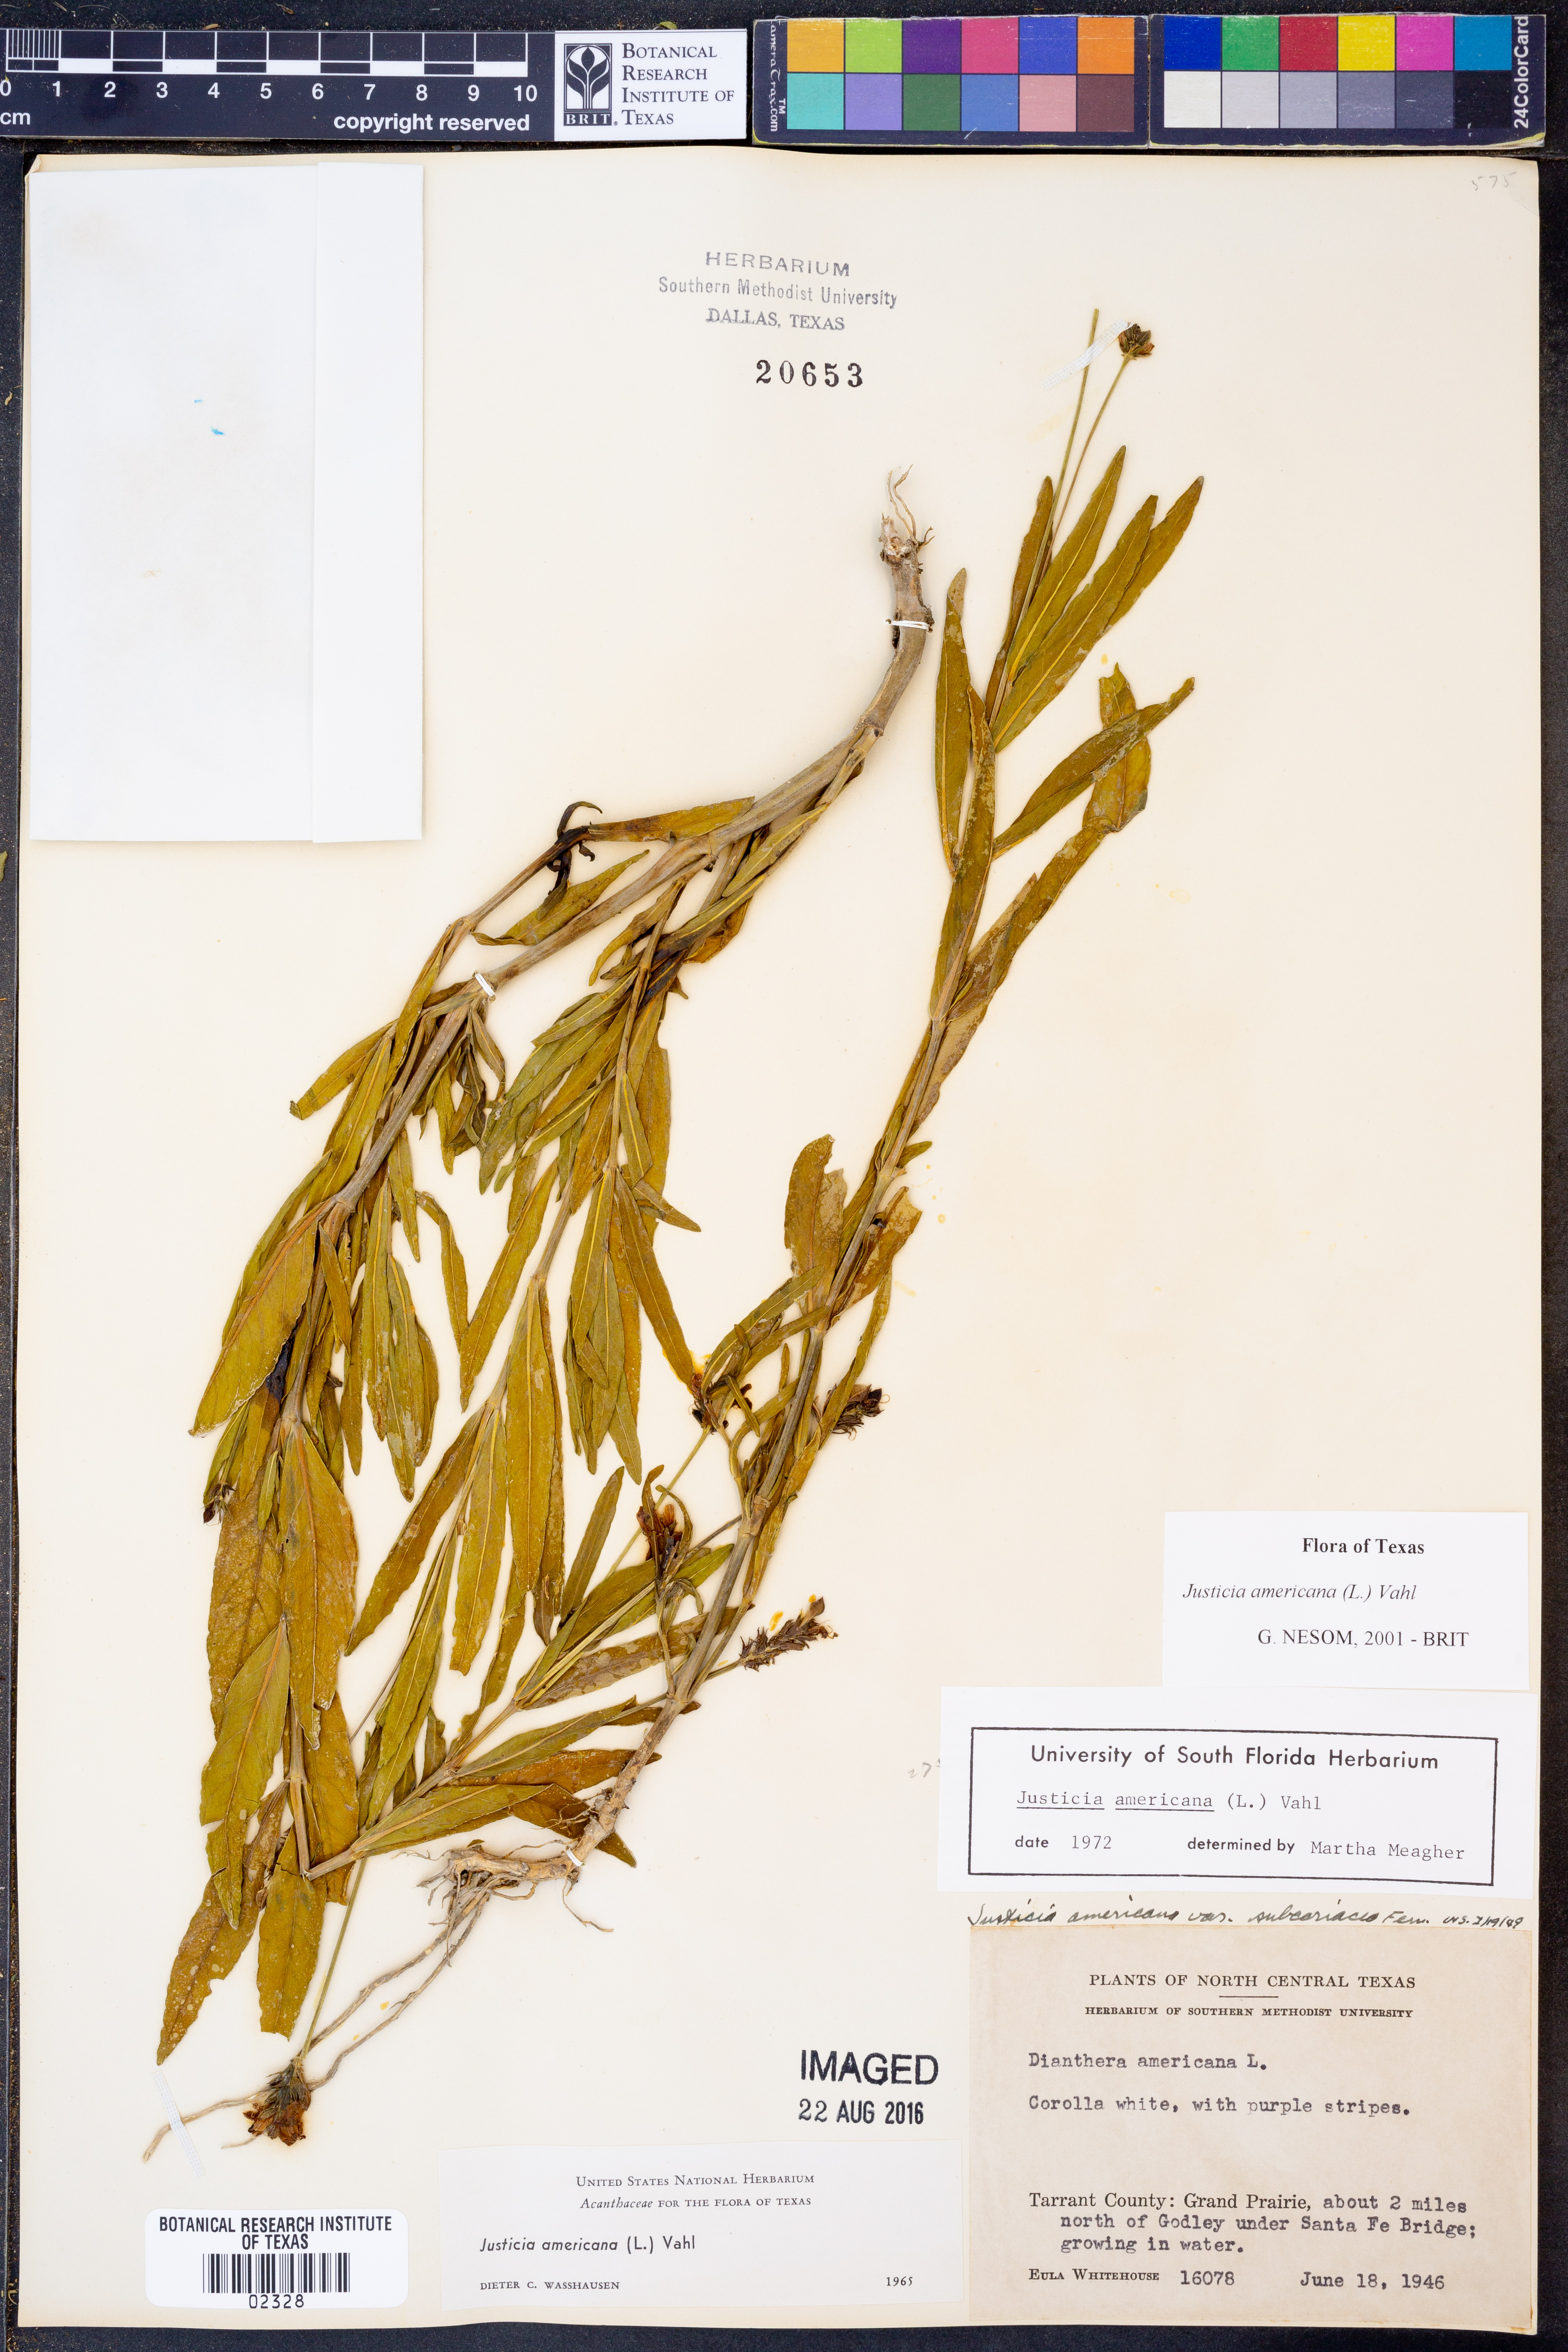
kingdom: Plantae
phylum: Tracheophyta
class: Magnoliopsida
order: Lamiales
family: Acanthaceae
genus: Dianthera
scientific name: Dianthera americana
